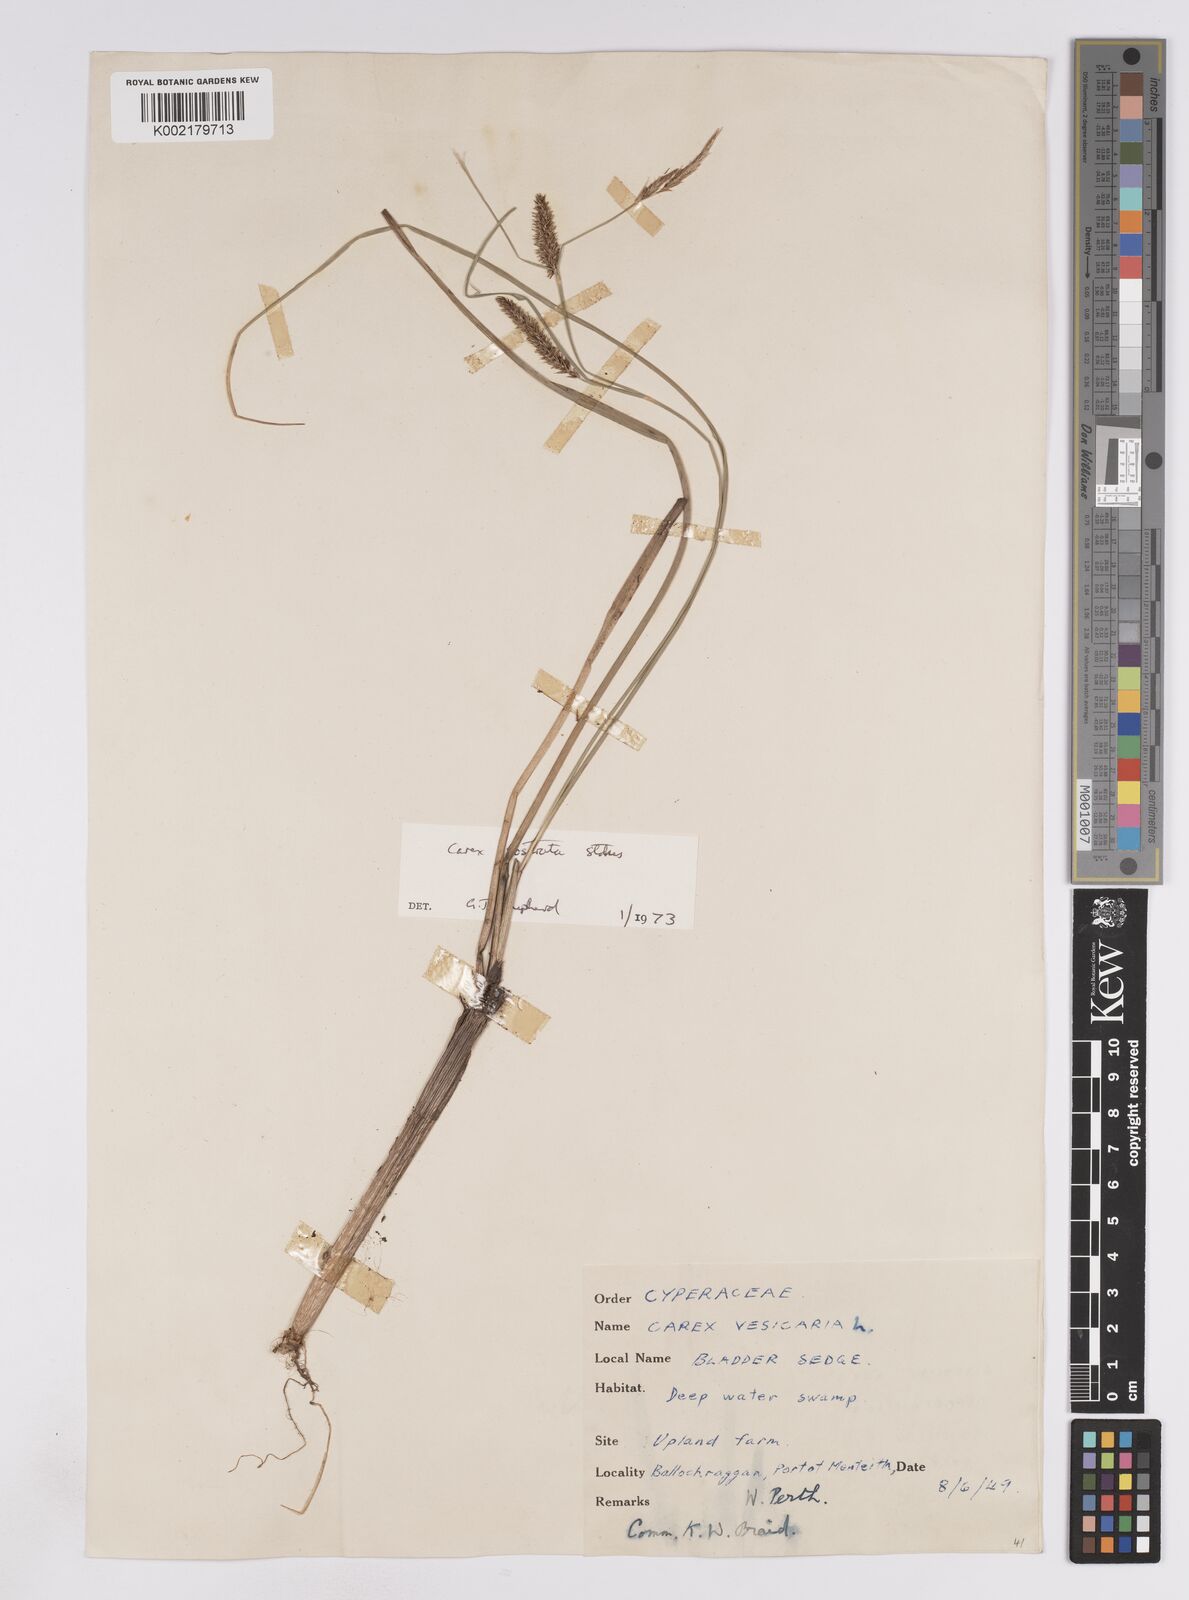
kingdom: Plantae
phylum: Tracheophyta
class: Liliopsida
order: Poales
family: Cyperaceae
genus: Carex
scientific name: Carex rostrata
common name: Bottle sedge
